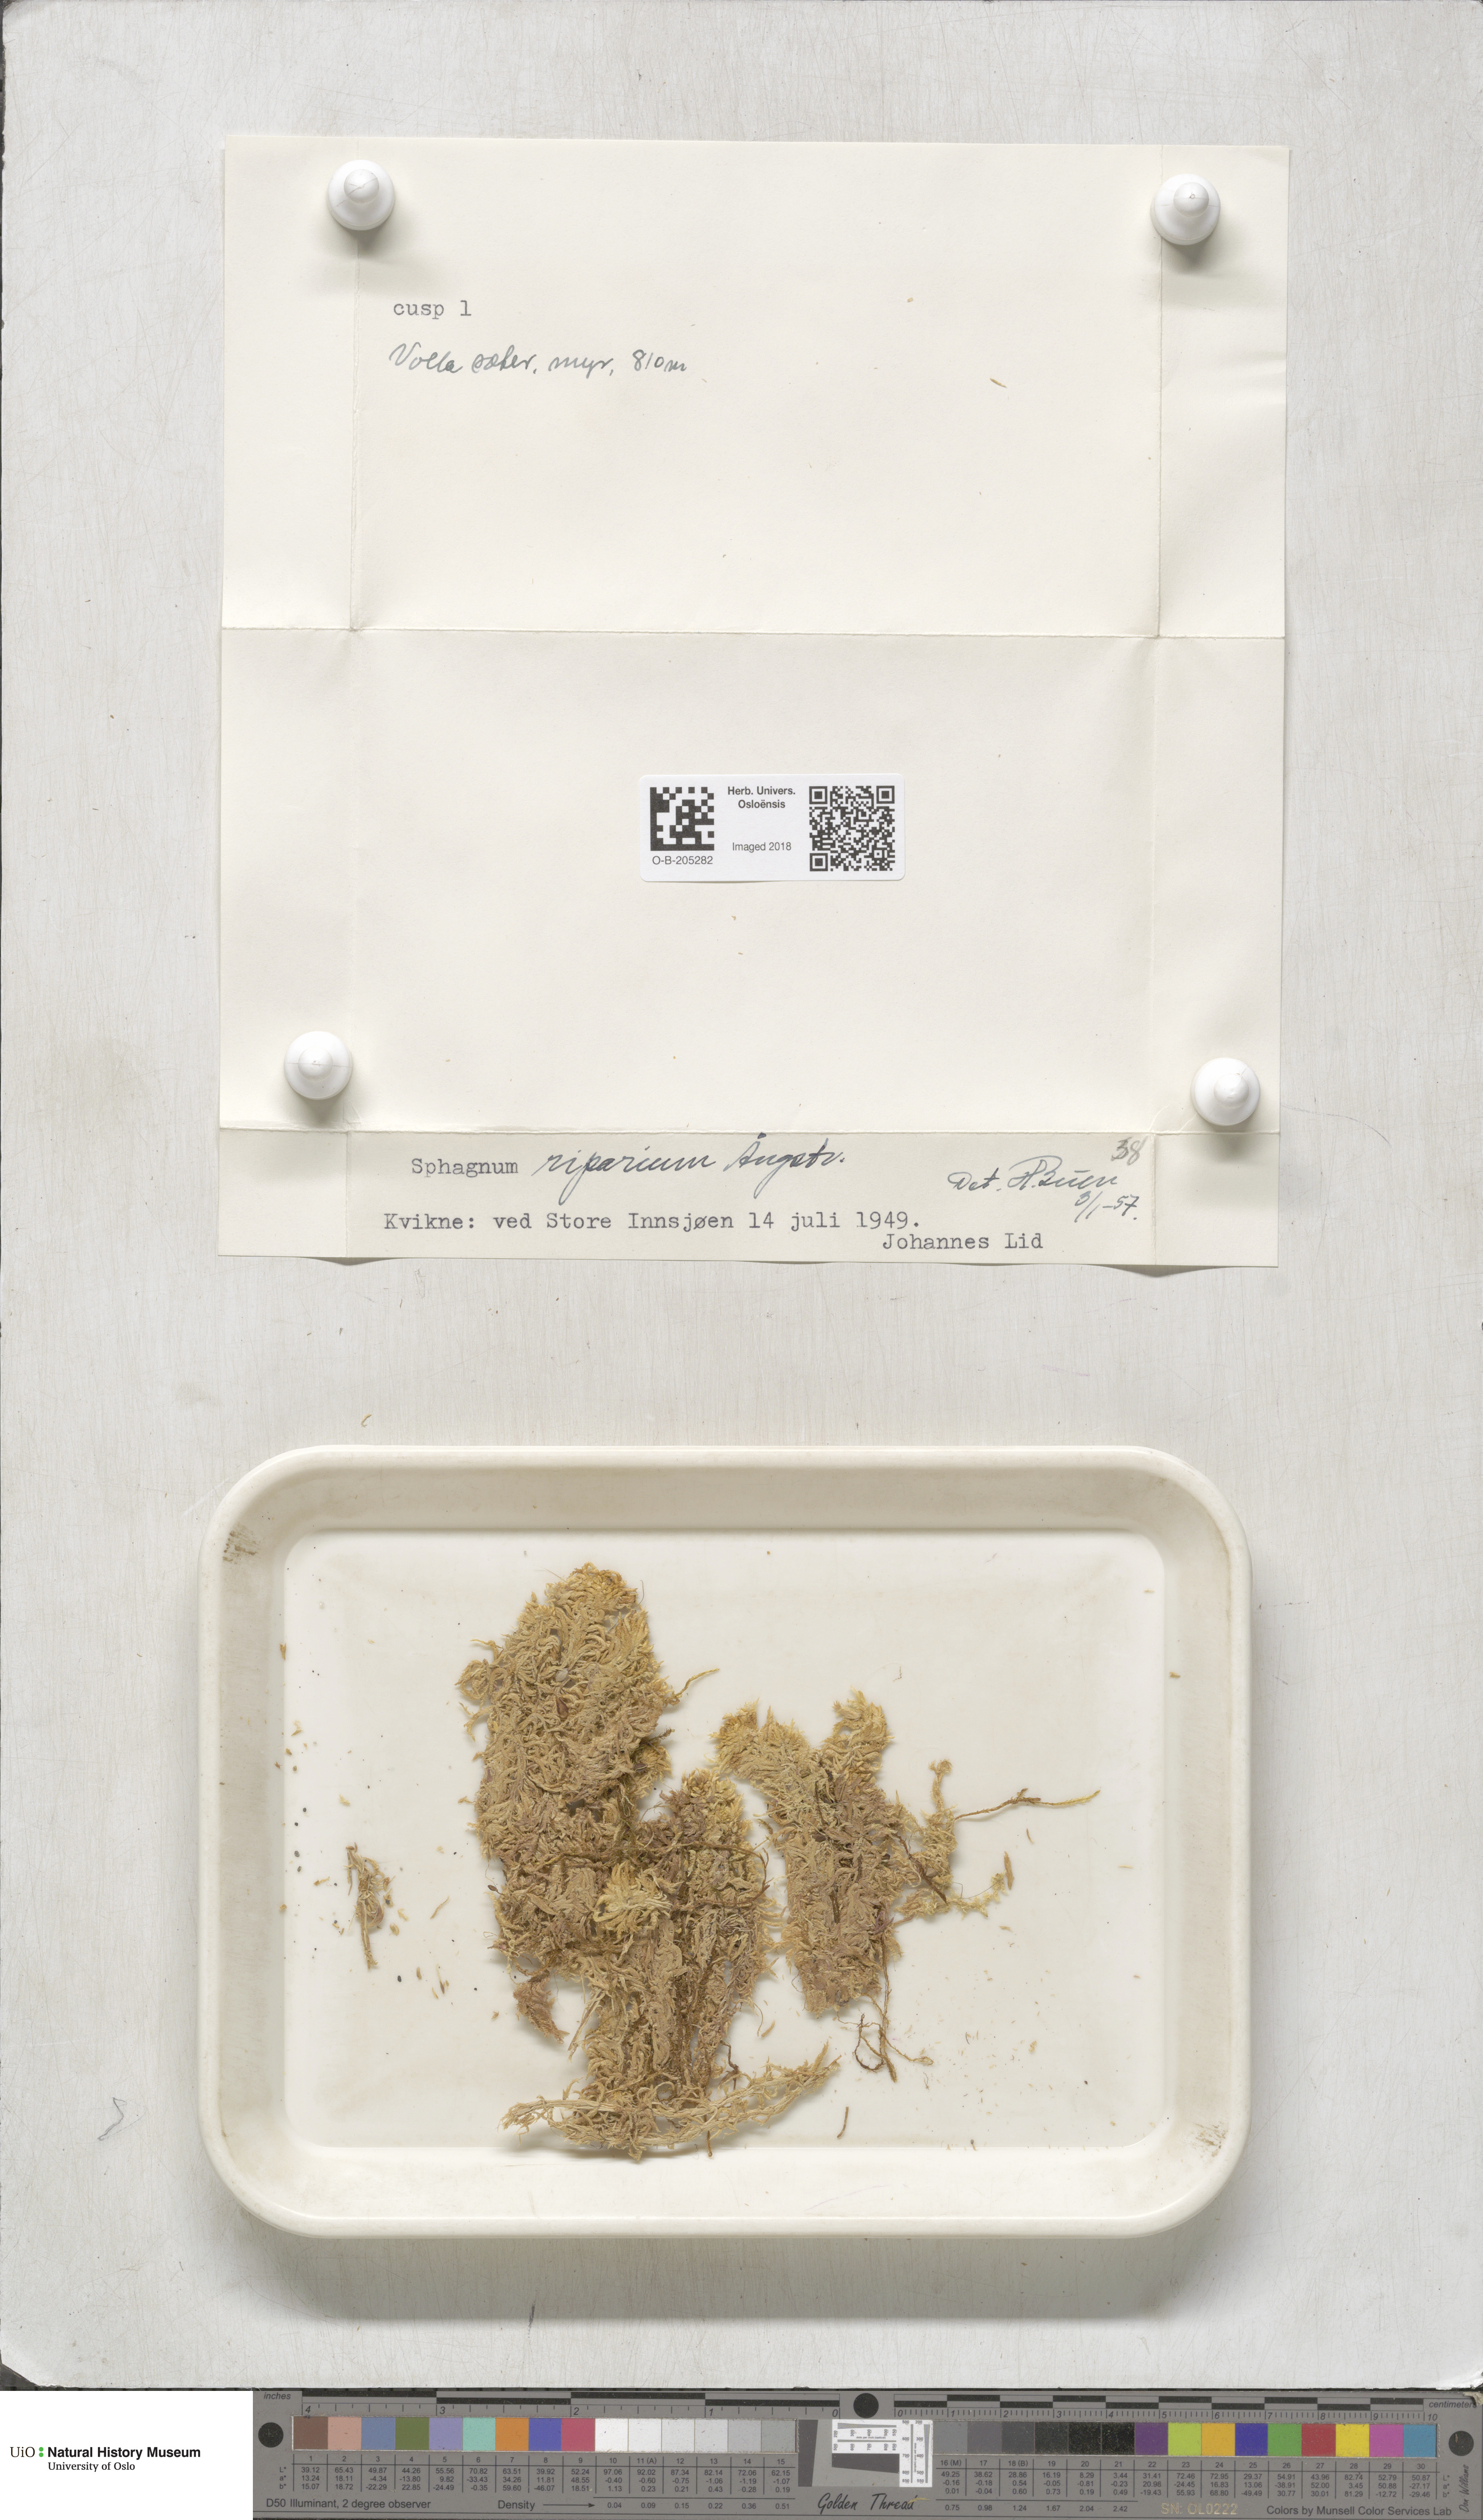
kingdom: Plantae
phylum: Bryophyta
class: Sphagnopsida
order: Sphagnales
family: Sphagnaceae
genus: Sphagnum
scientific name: Sphagnum riparium
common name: Streamside peat moss
